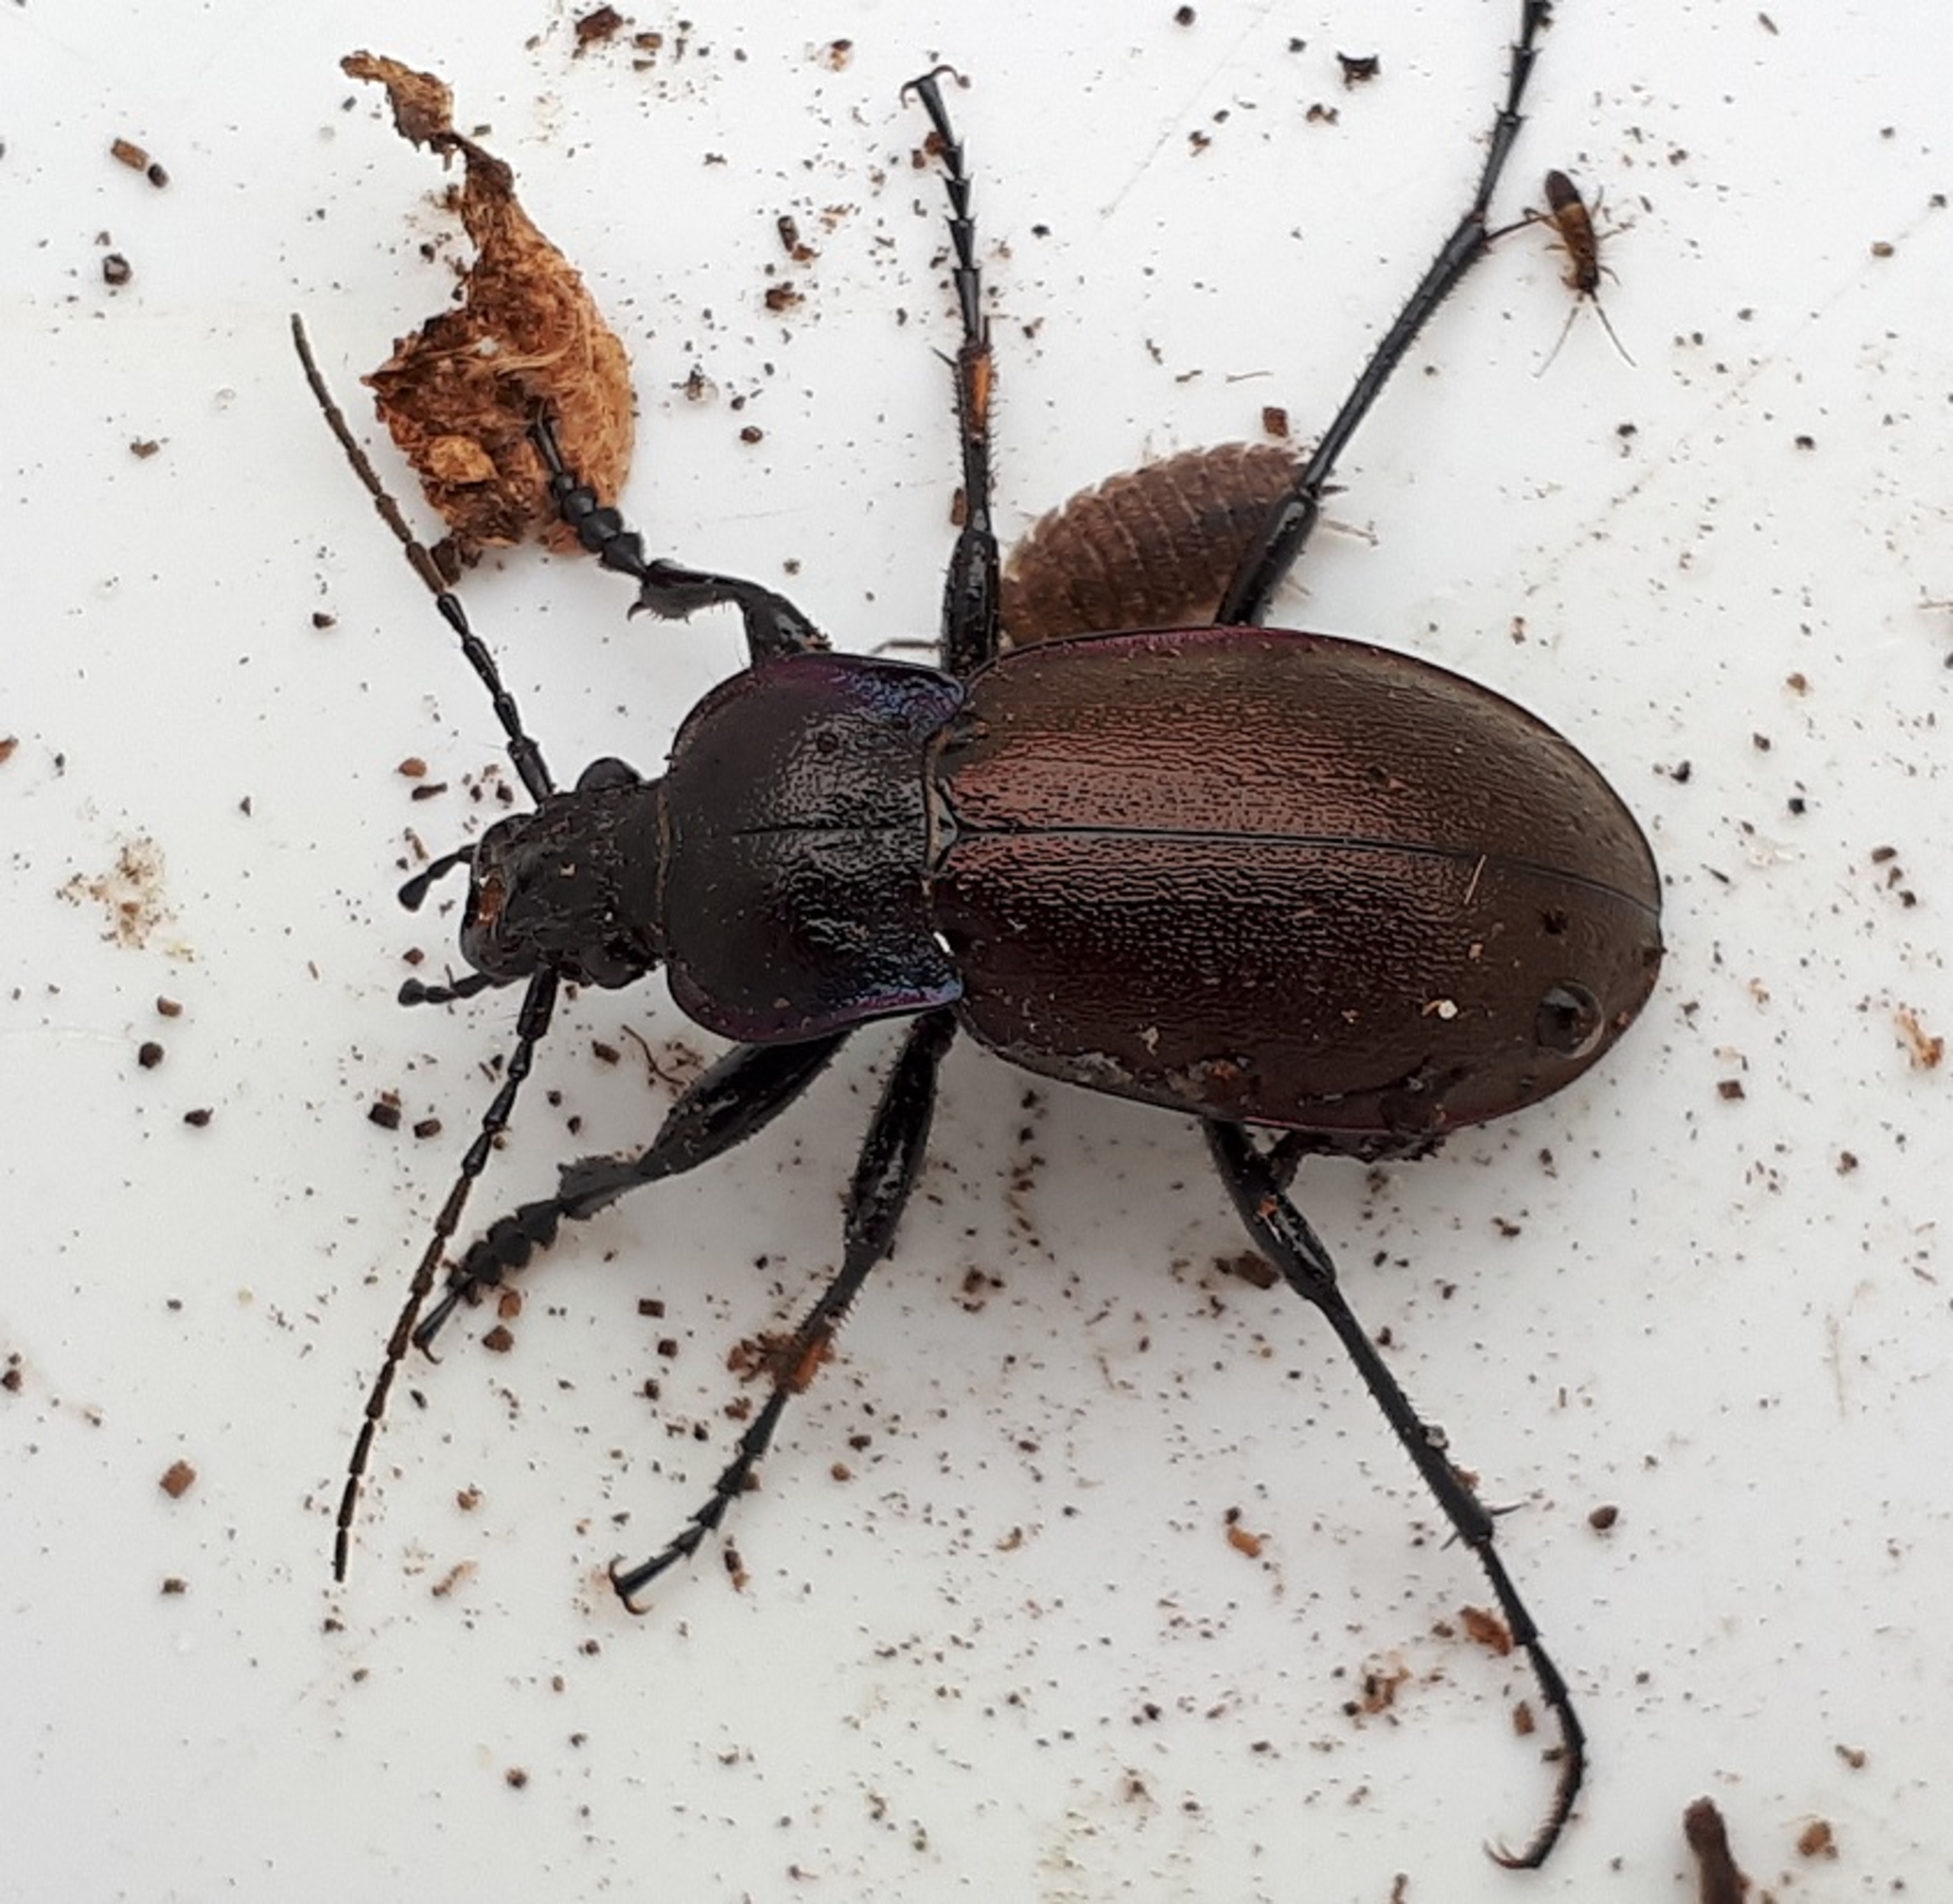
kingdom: Animalia
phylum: Arthropoda
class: Insecta
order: Coleoptera
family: Carabidae
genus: Carabus
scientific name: Carabus nemoralis
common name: Kratløber
